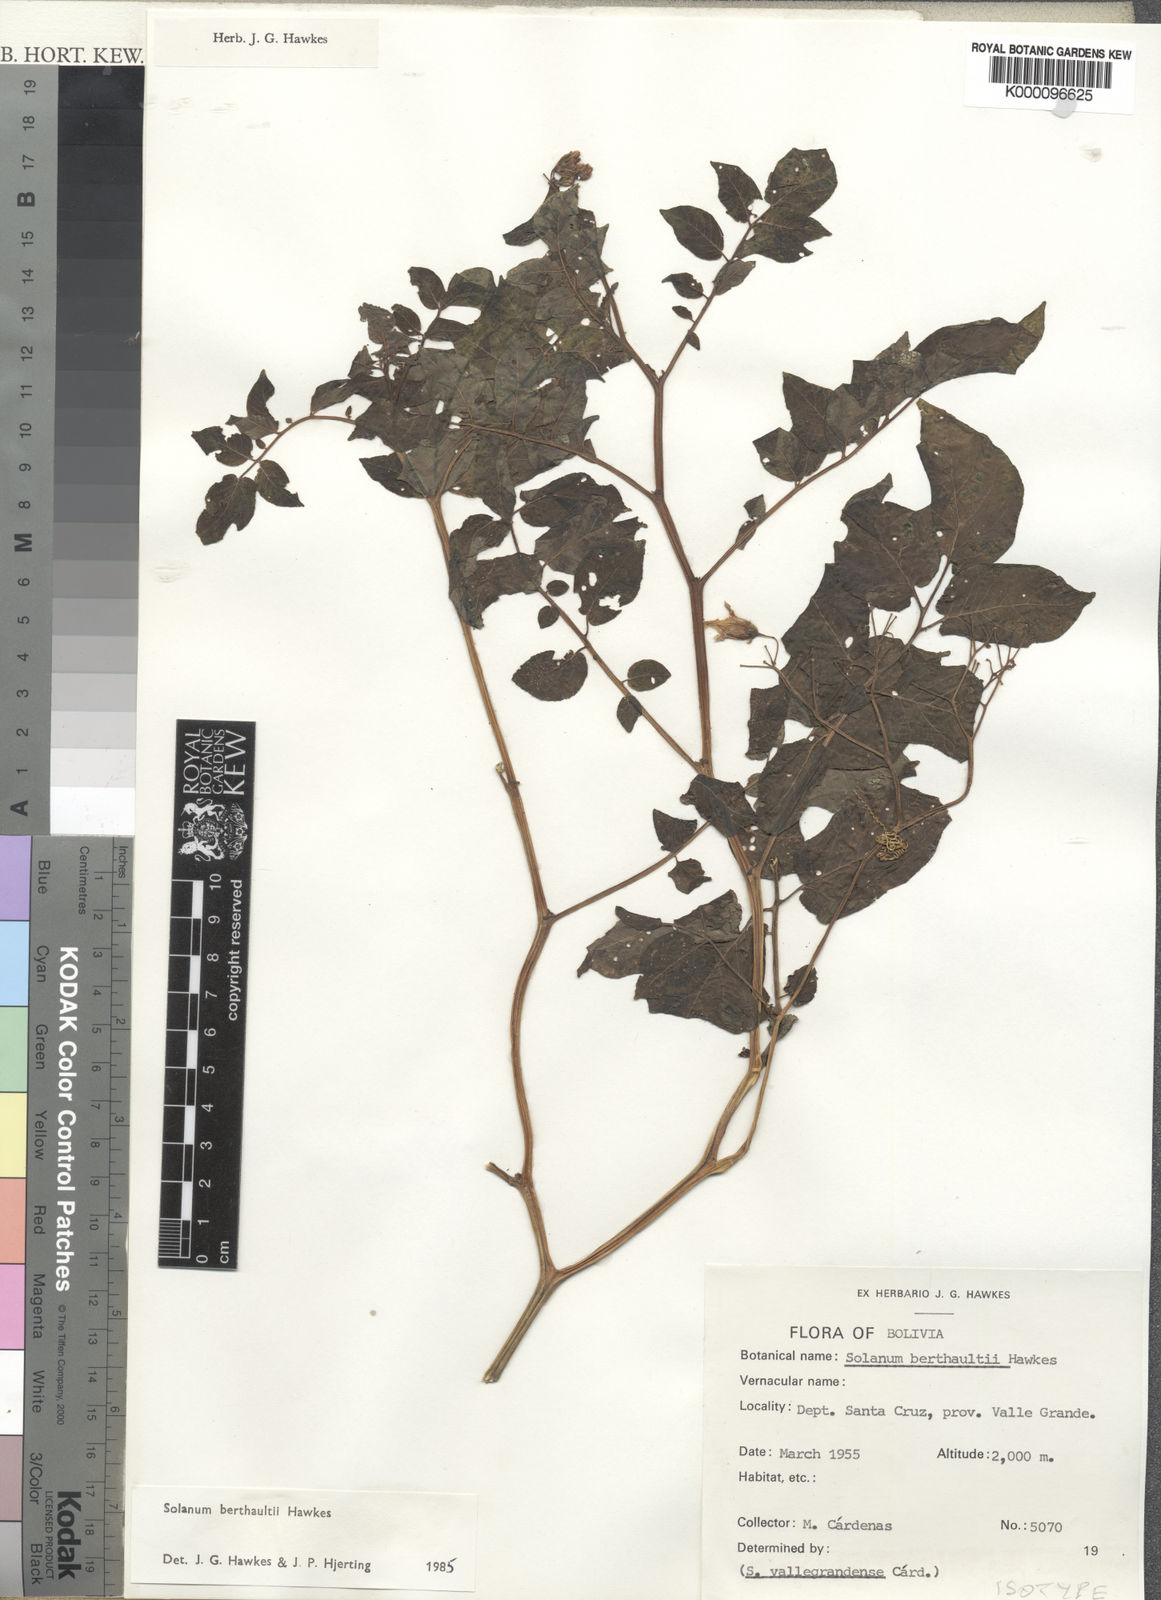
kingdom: Plantae
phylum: Tracheophyta
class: Magnoliopsida
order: Solanales
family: Solanaceae
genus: Solanum
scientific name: Solanum berthaultii
